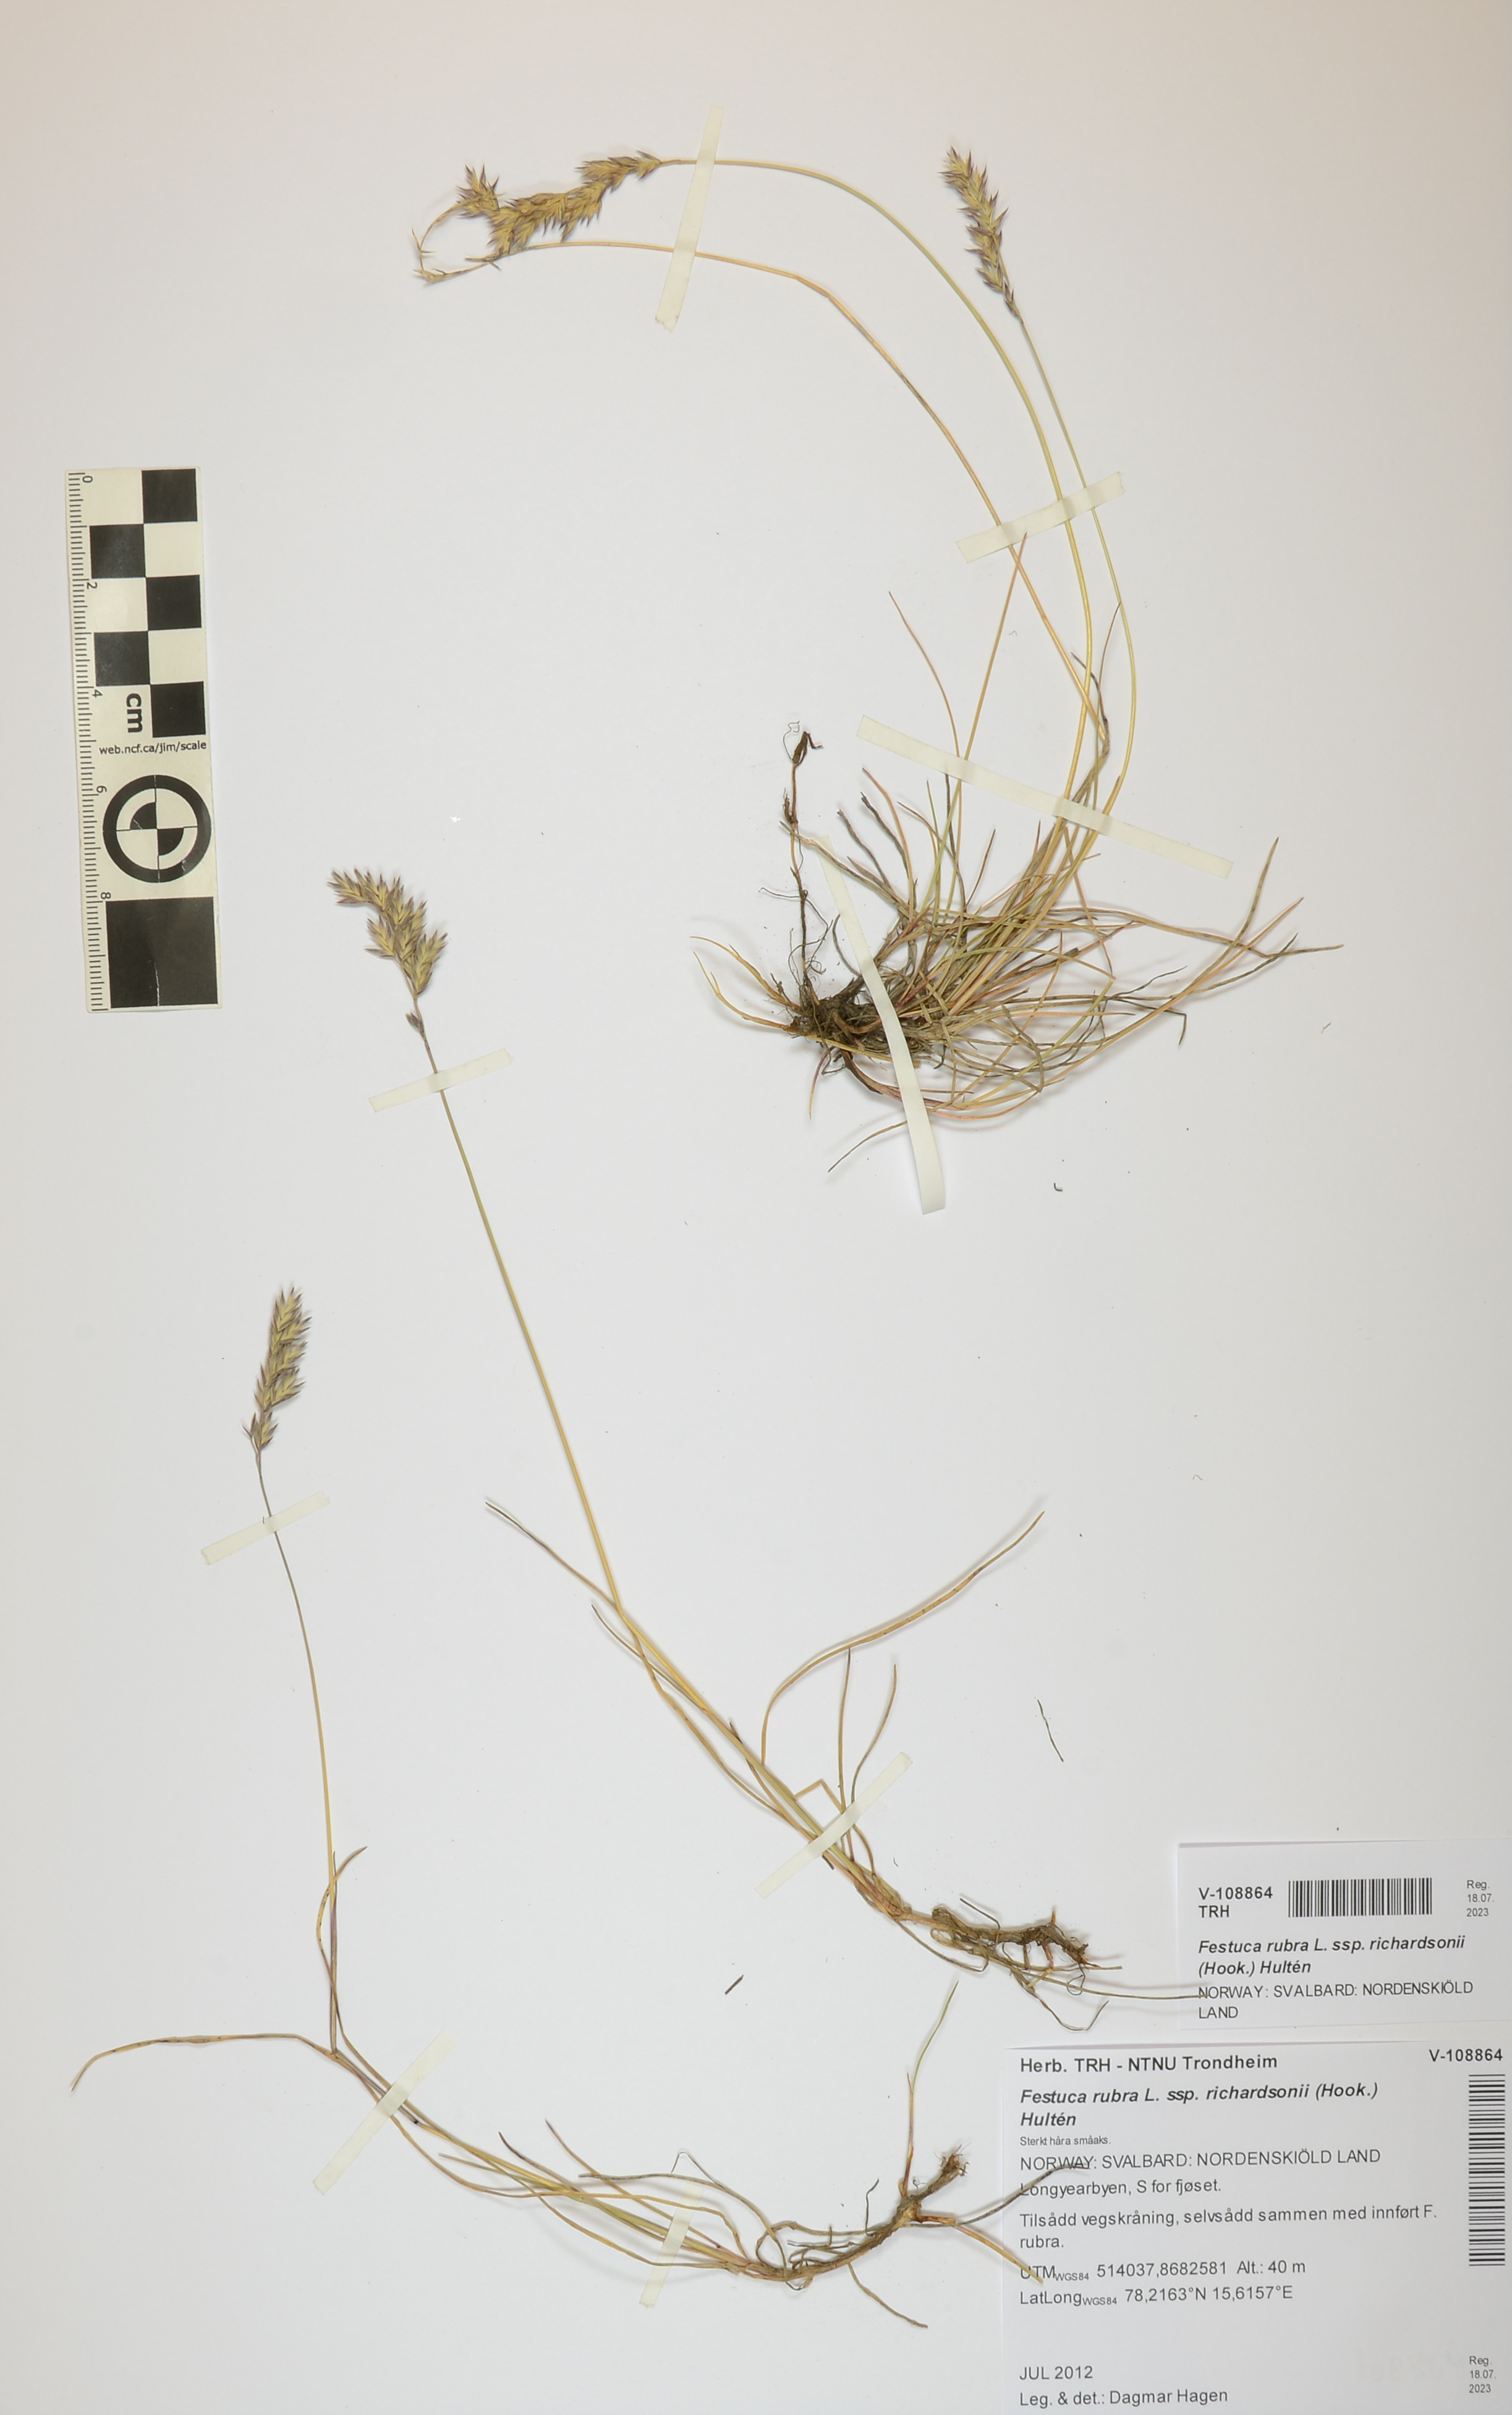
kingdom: Plantae
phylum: Tracheophyta
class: Liliopsida
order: Poales
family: Poaceae
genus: Festuca
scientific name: Festuca richardsonii
